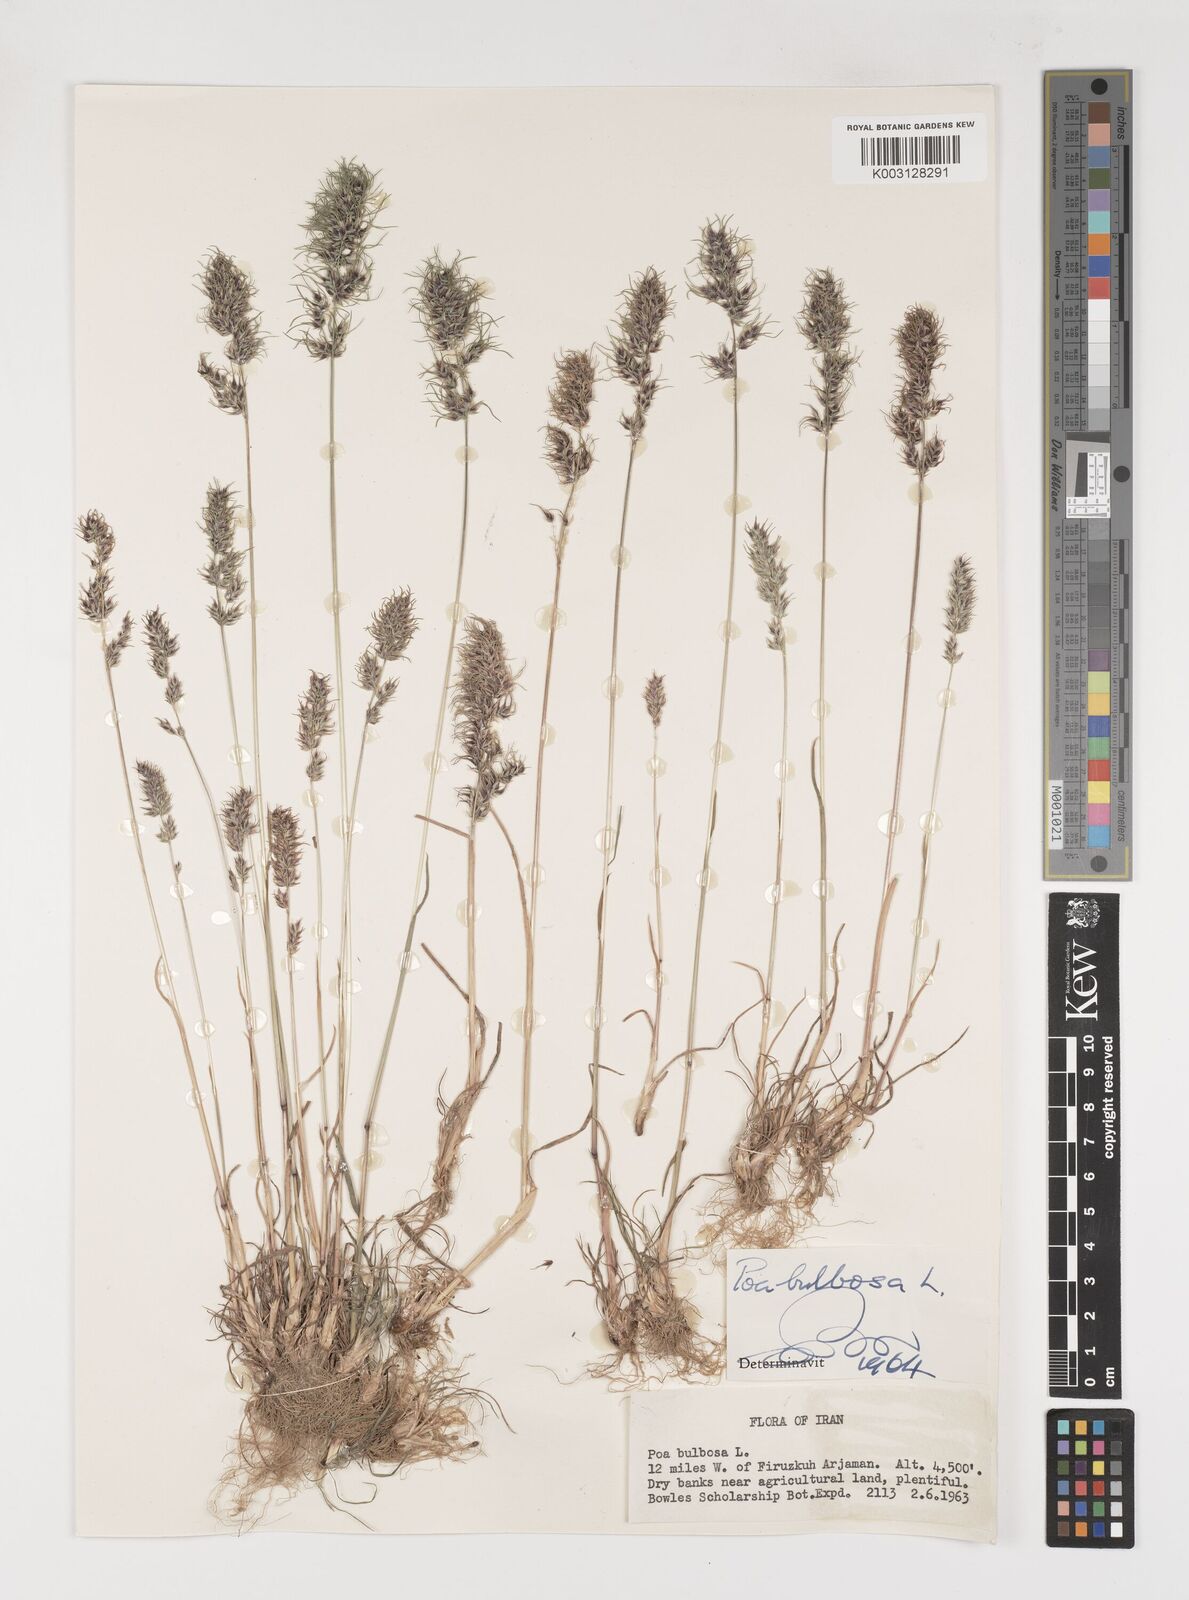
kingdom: Plantae
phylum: Tracheophyta
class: Liliopsida
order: Poales
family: Poaceae
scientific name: Poaceae
